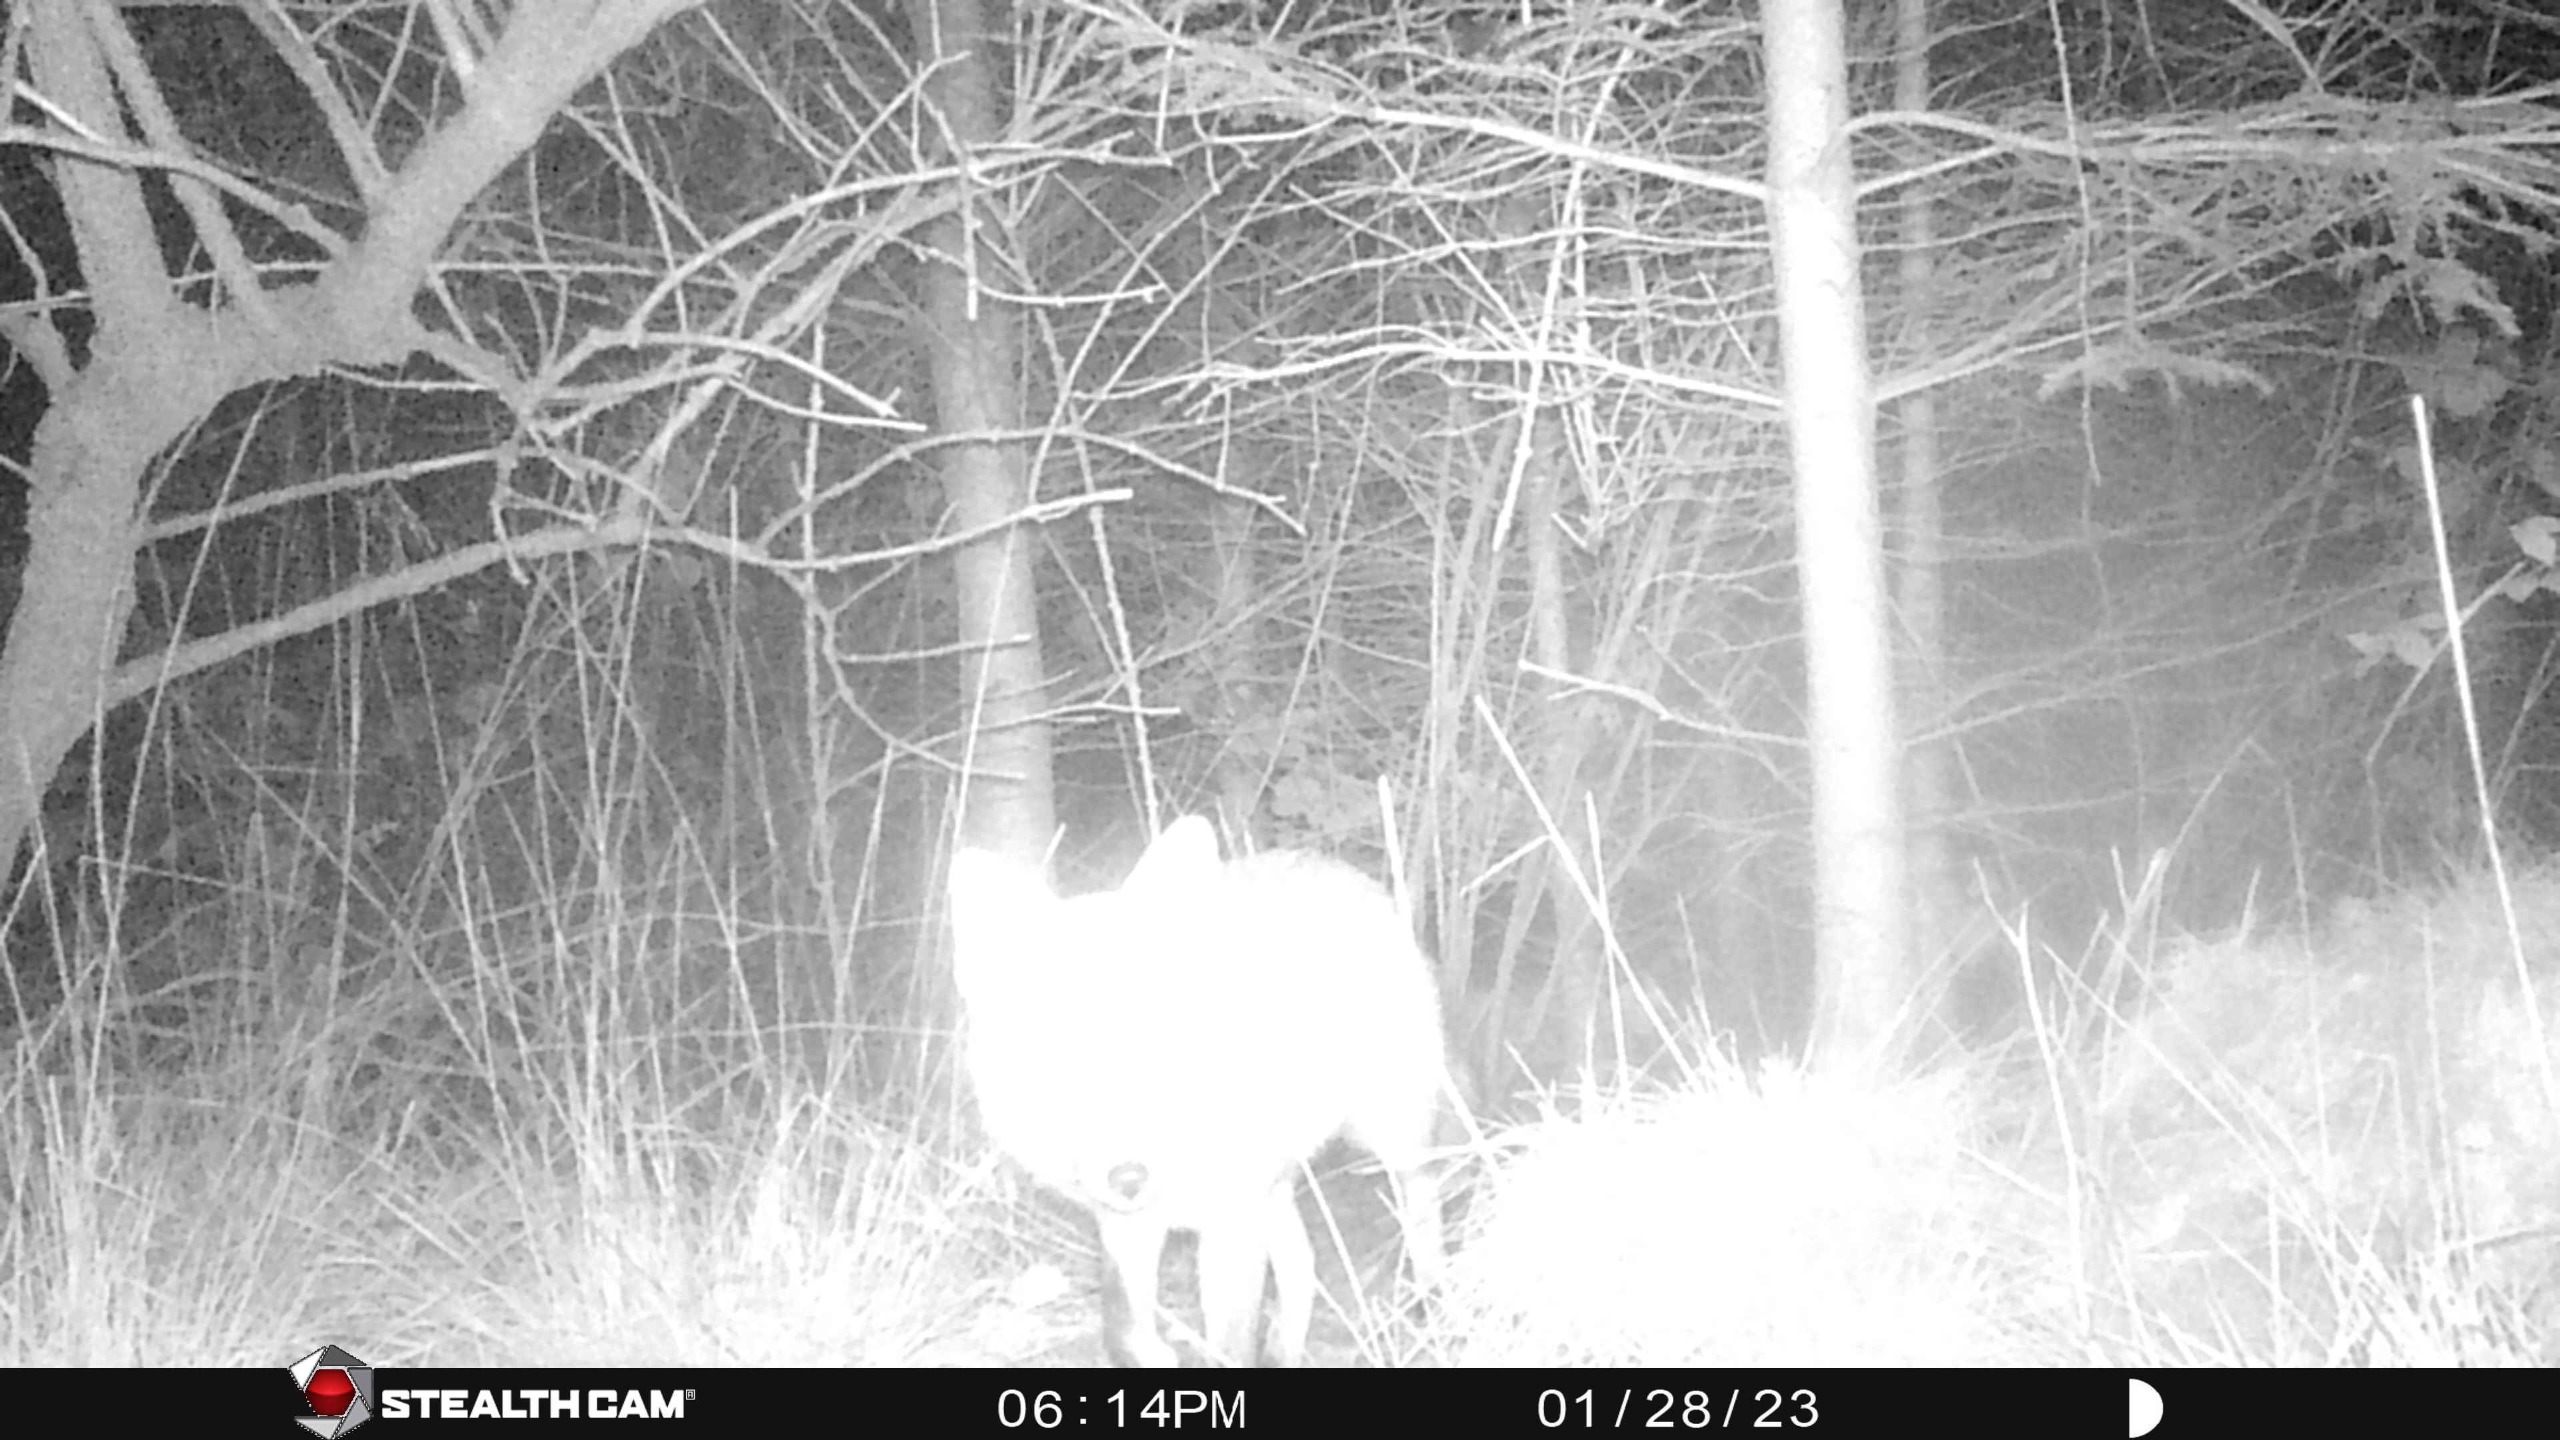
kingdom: Animalia
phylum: Chordata
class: Mammalia
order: Carnivora
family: Canidae
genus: Vulpes
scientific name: Vulpes vulpes
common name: Ræv
